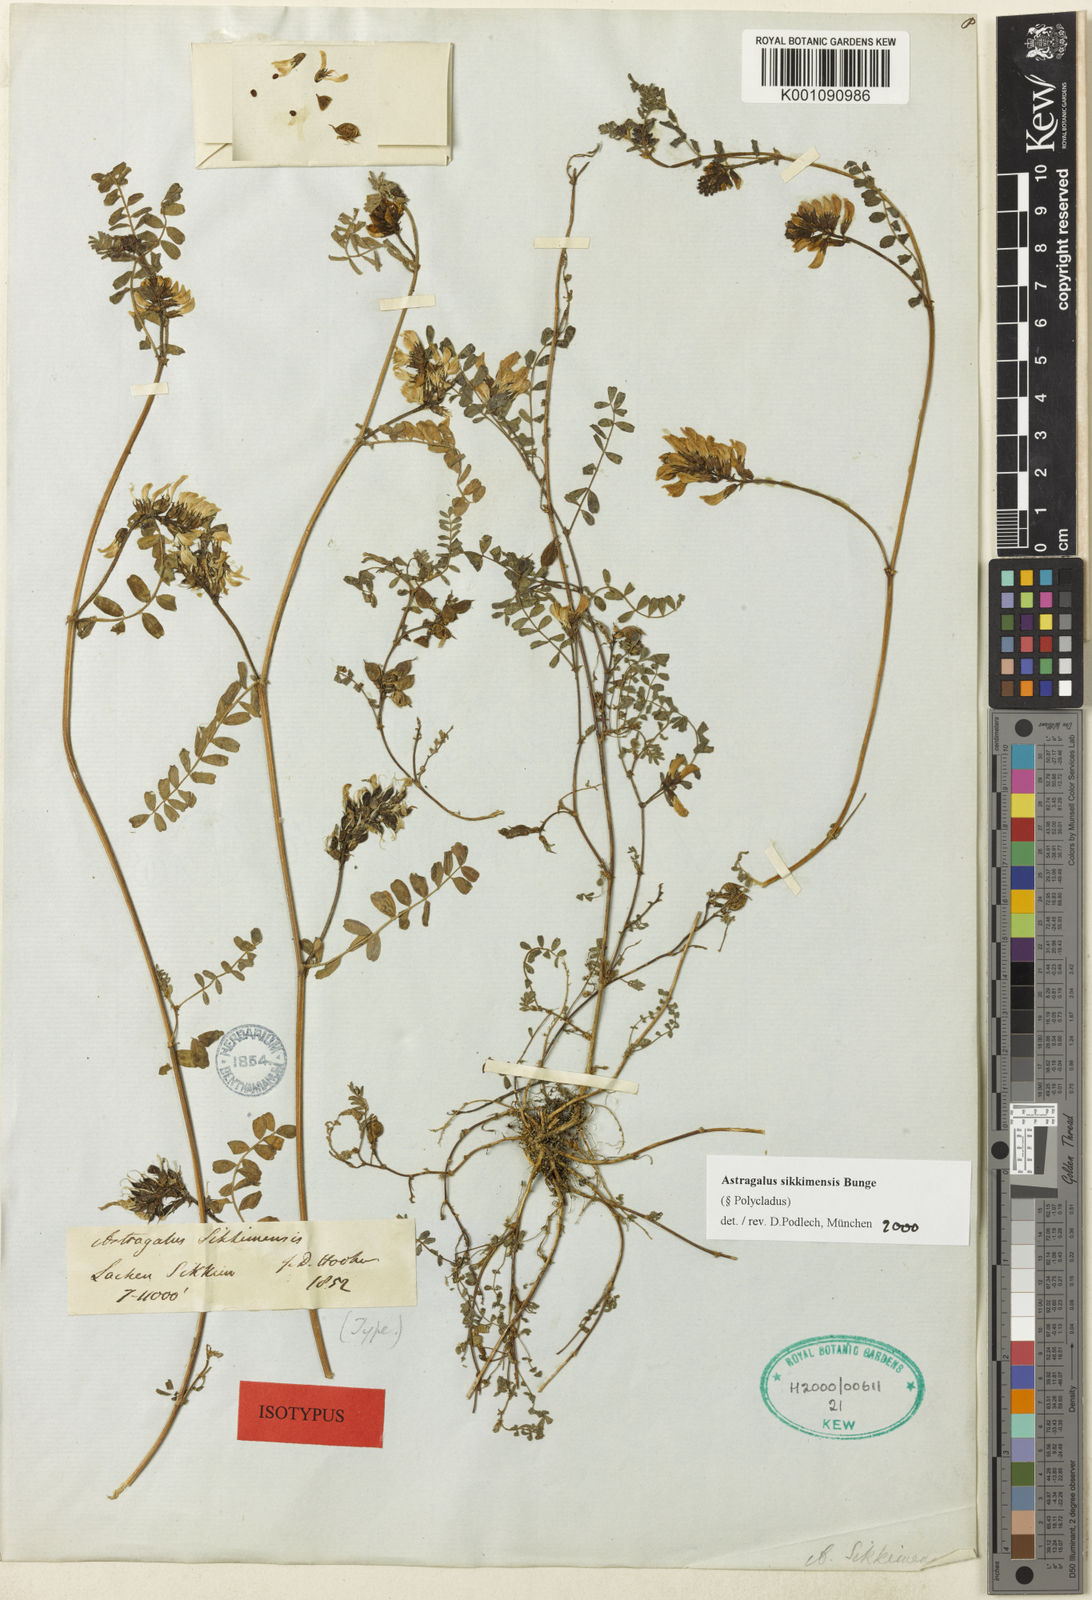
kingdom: Plantae
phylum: Tracheophyta
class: Magnoliopsida
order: Fabales
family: Fabaceae
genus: Astragalus
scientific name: Astragalus
